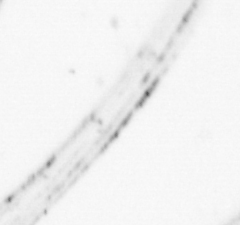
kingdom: Animalia
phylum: Chordata
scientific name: Chordata
